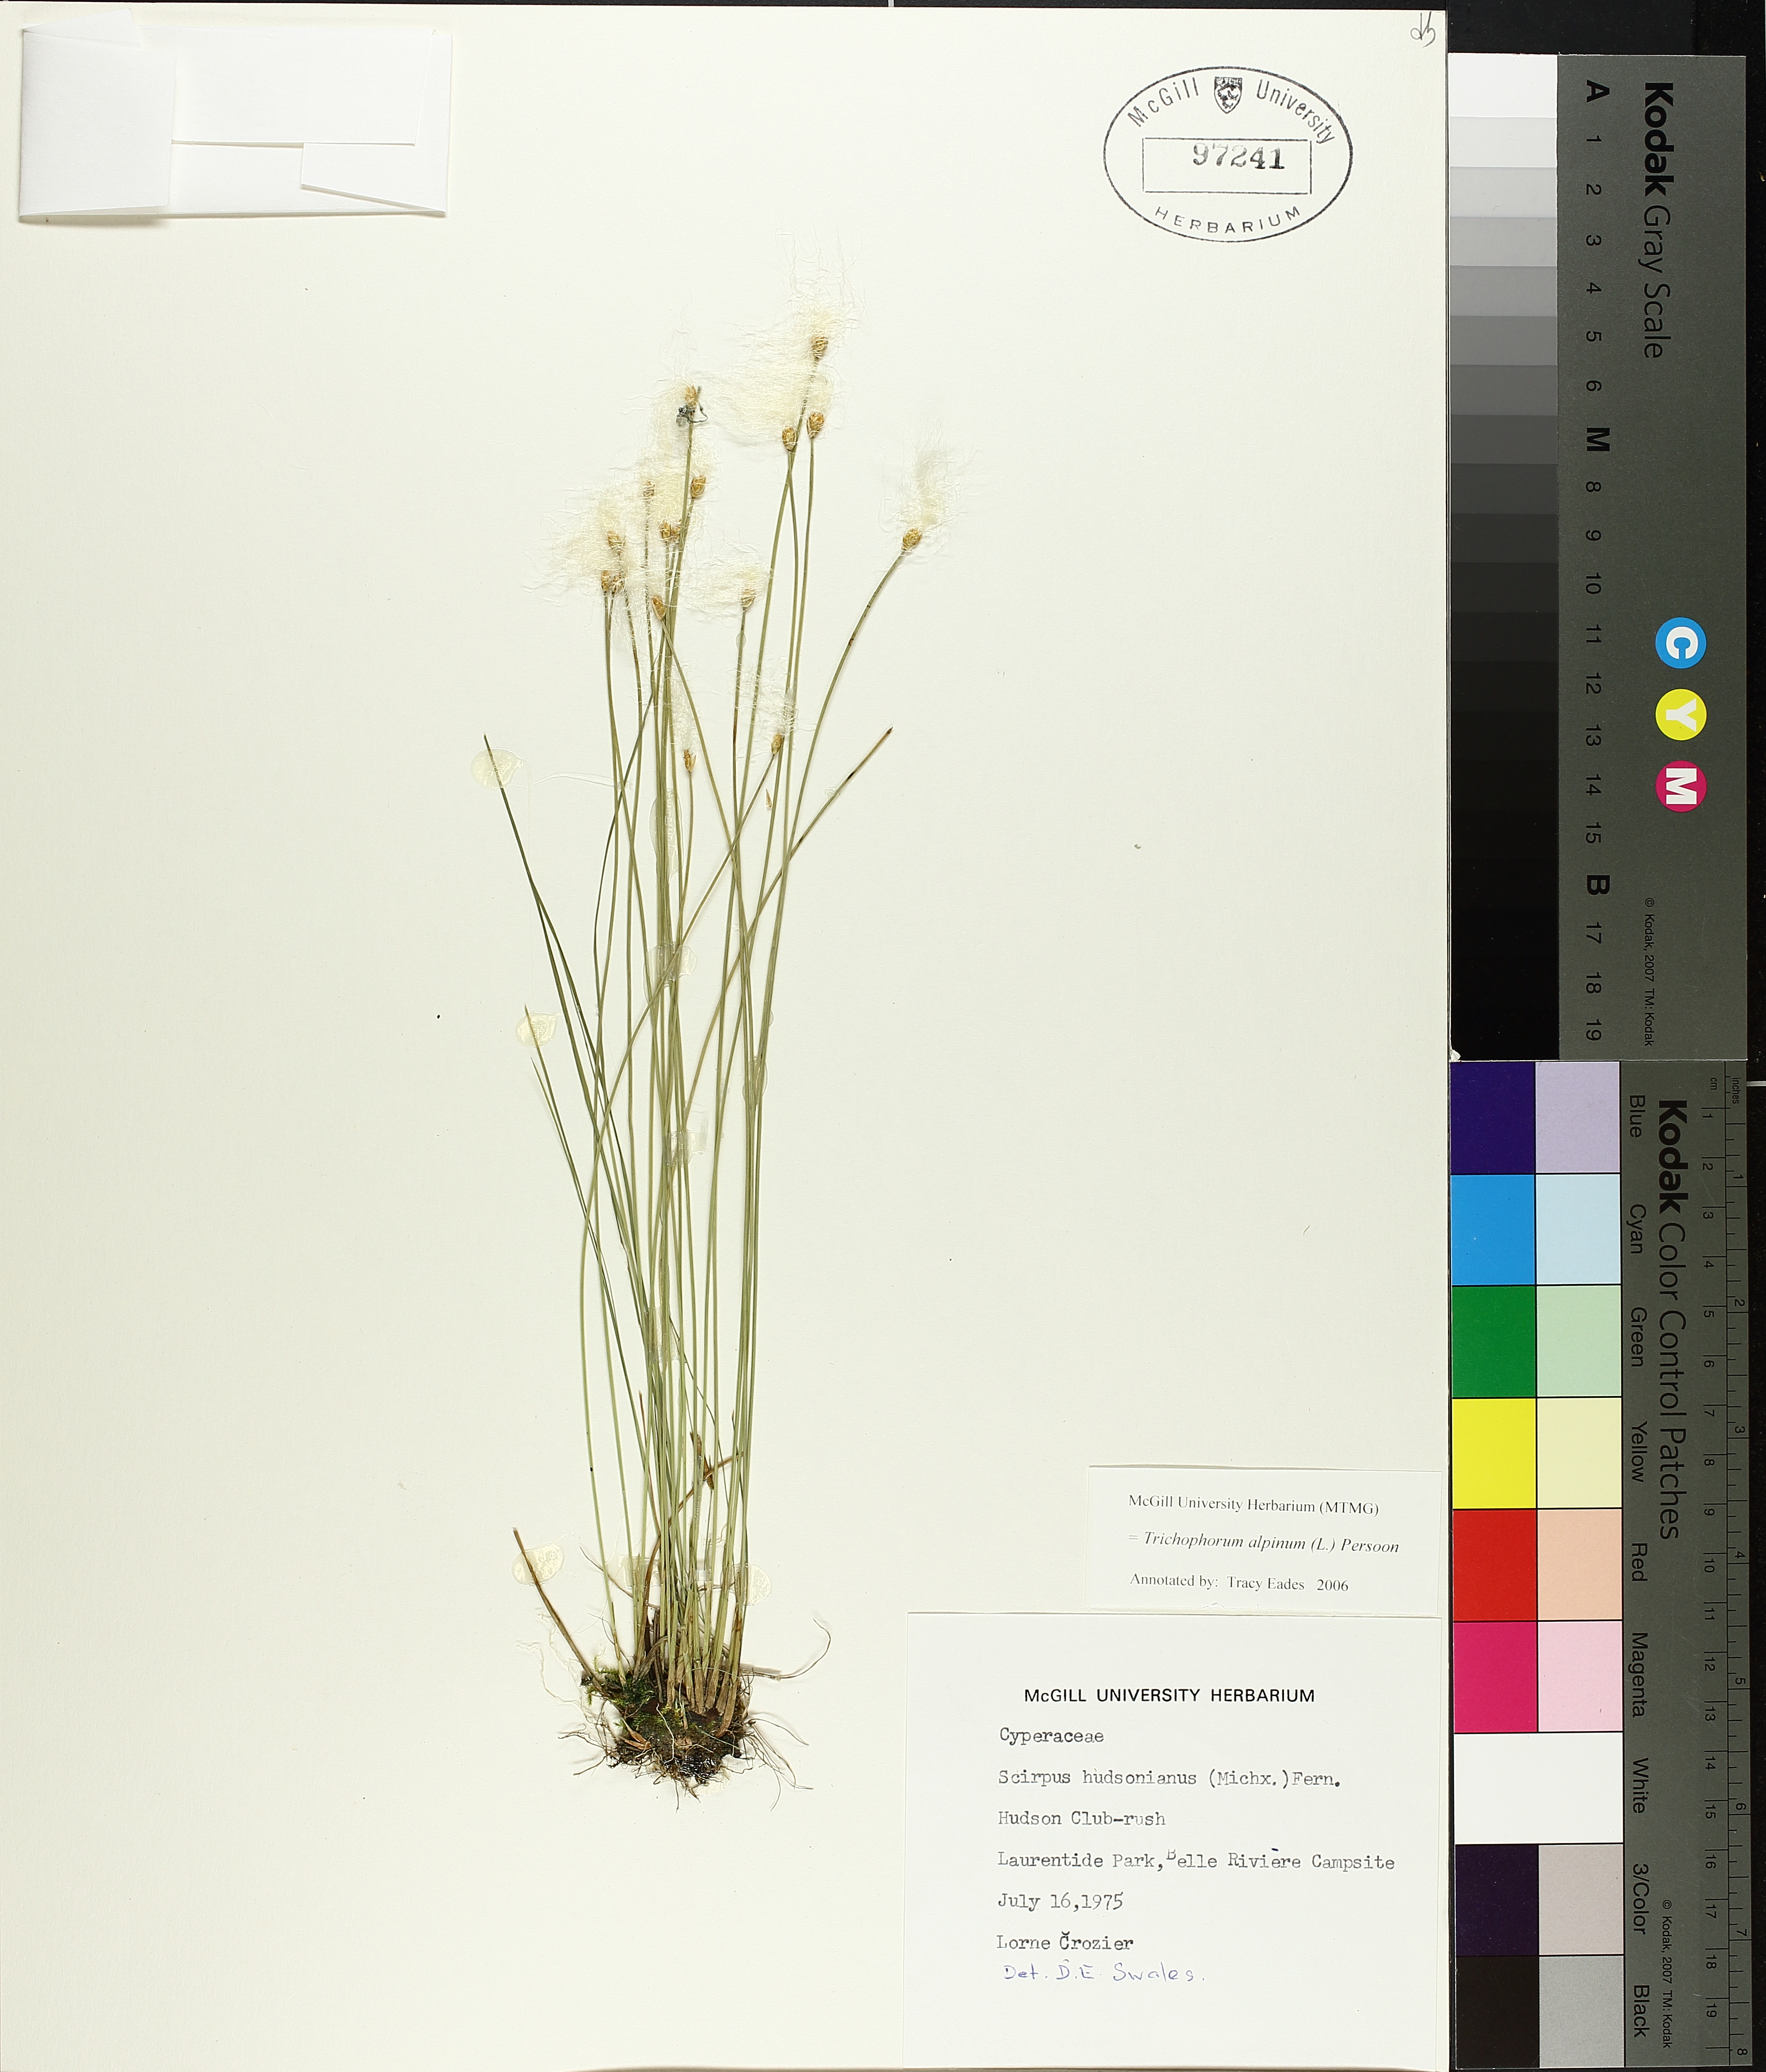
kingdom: Plantae
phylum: Tracheophyta
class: Liliopsida
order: Poales
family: Cyperaceae
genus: Trichophorum
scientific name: Trichophorum alpinum
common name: Alpine bulrush
